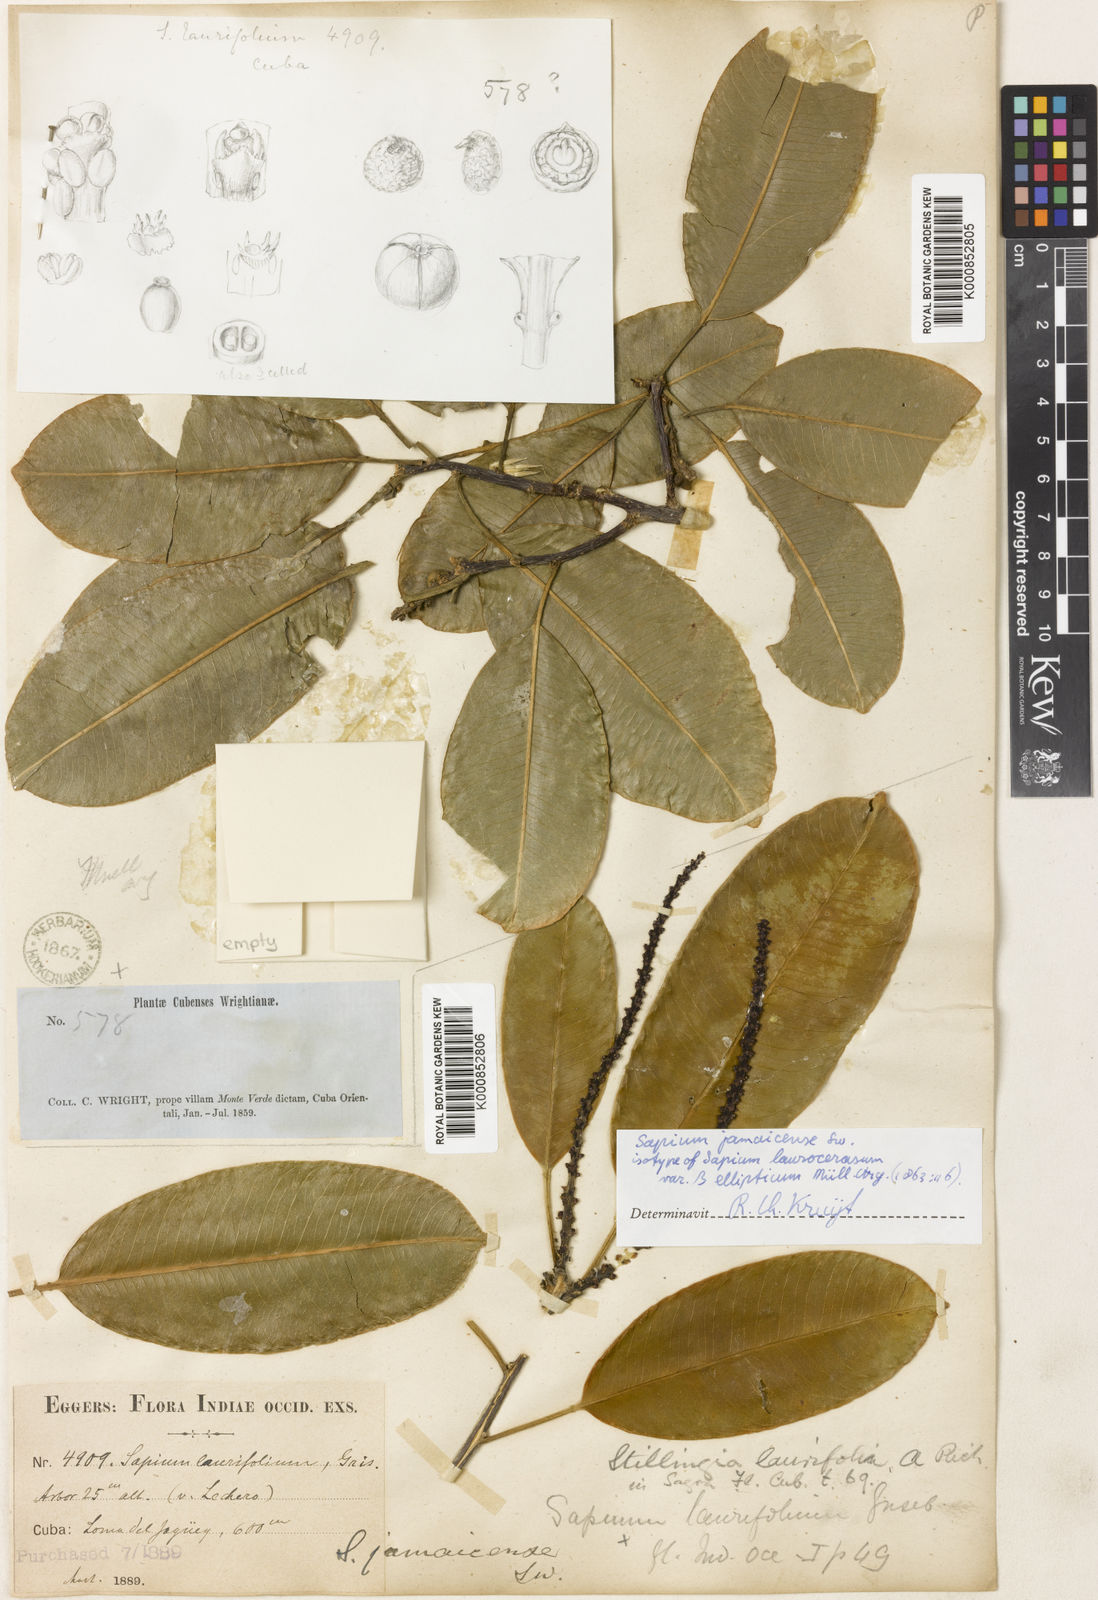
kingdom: Plantae
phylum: Tracheophyta
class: Magnoliopsida
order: Malpighiales
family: Euphorbiaceae
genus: Sapium
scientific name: Sapium laurifolium
